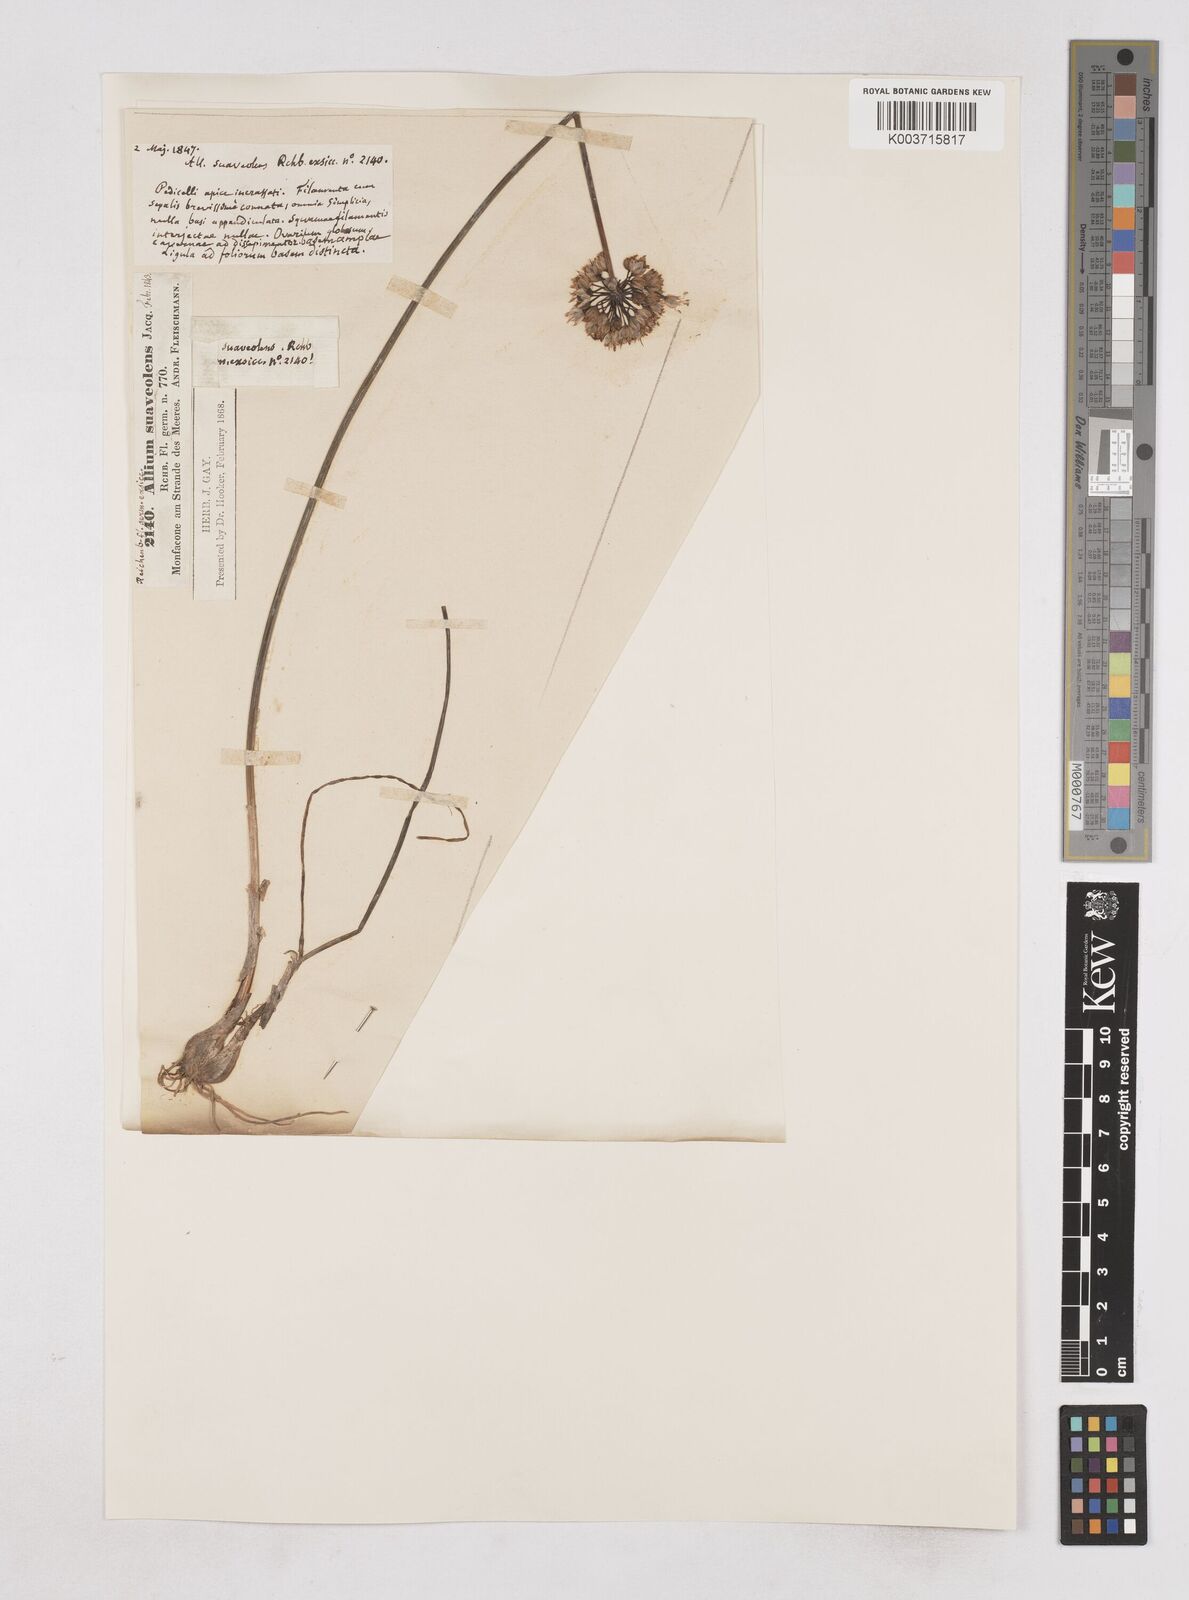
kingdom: Plantae
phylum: Tracheophyta
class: Liliopsida
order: Asparagales
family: Amaryllidaceae
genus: Allium
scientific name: Allium suaveolens
